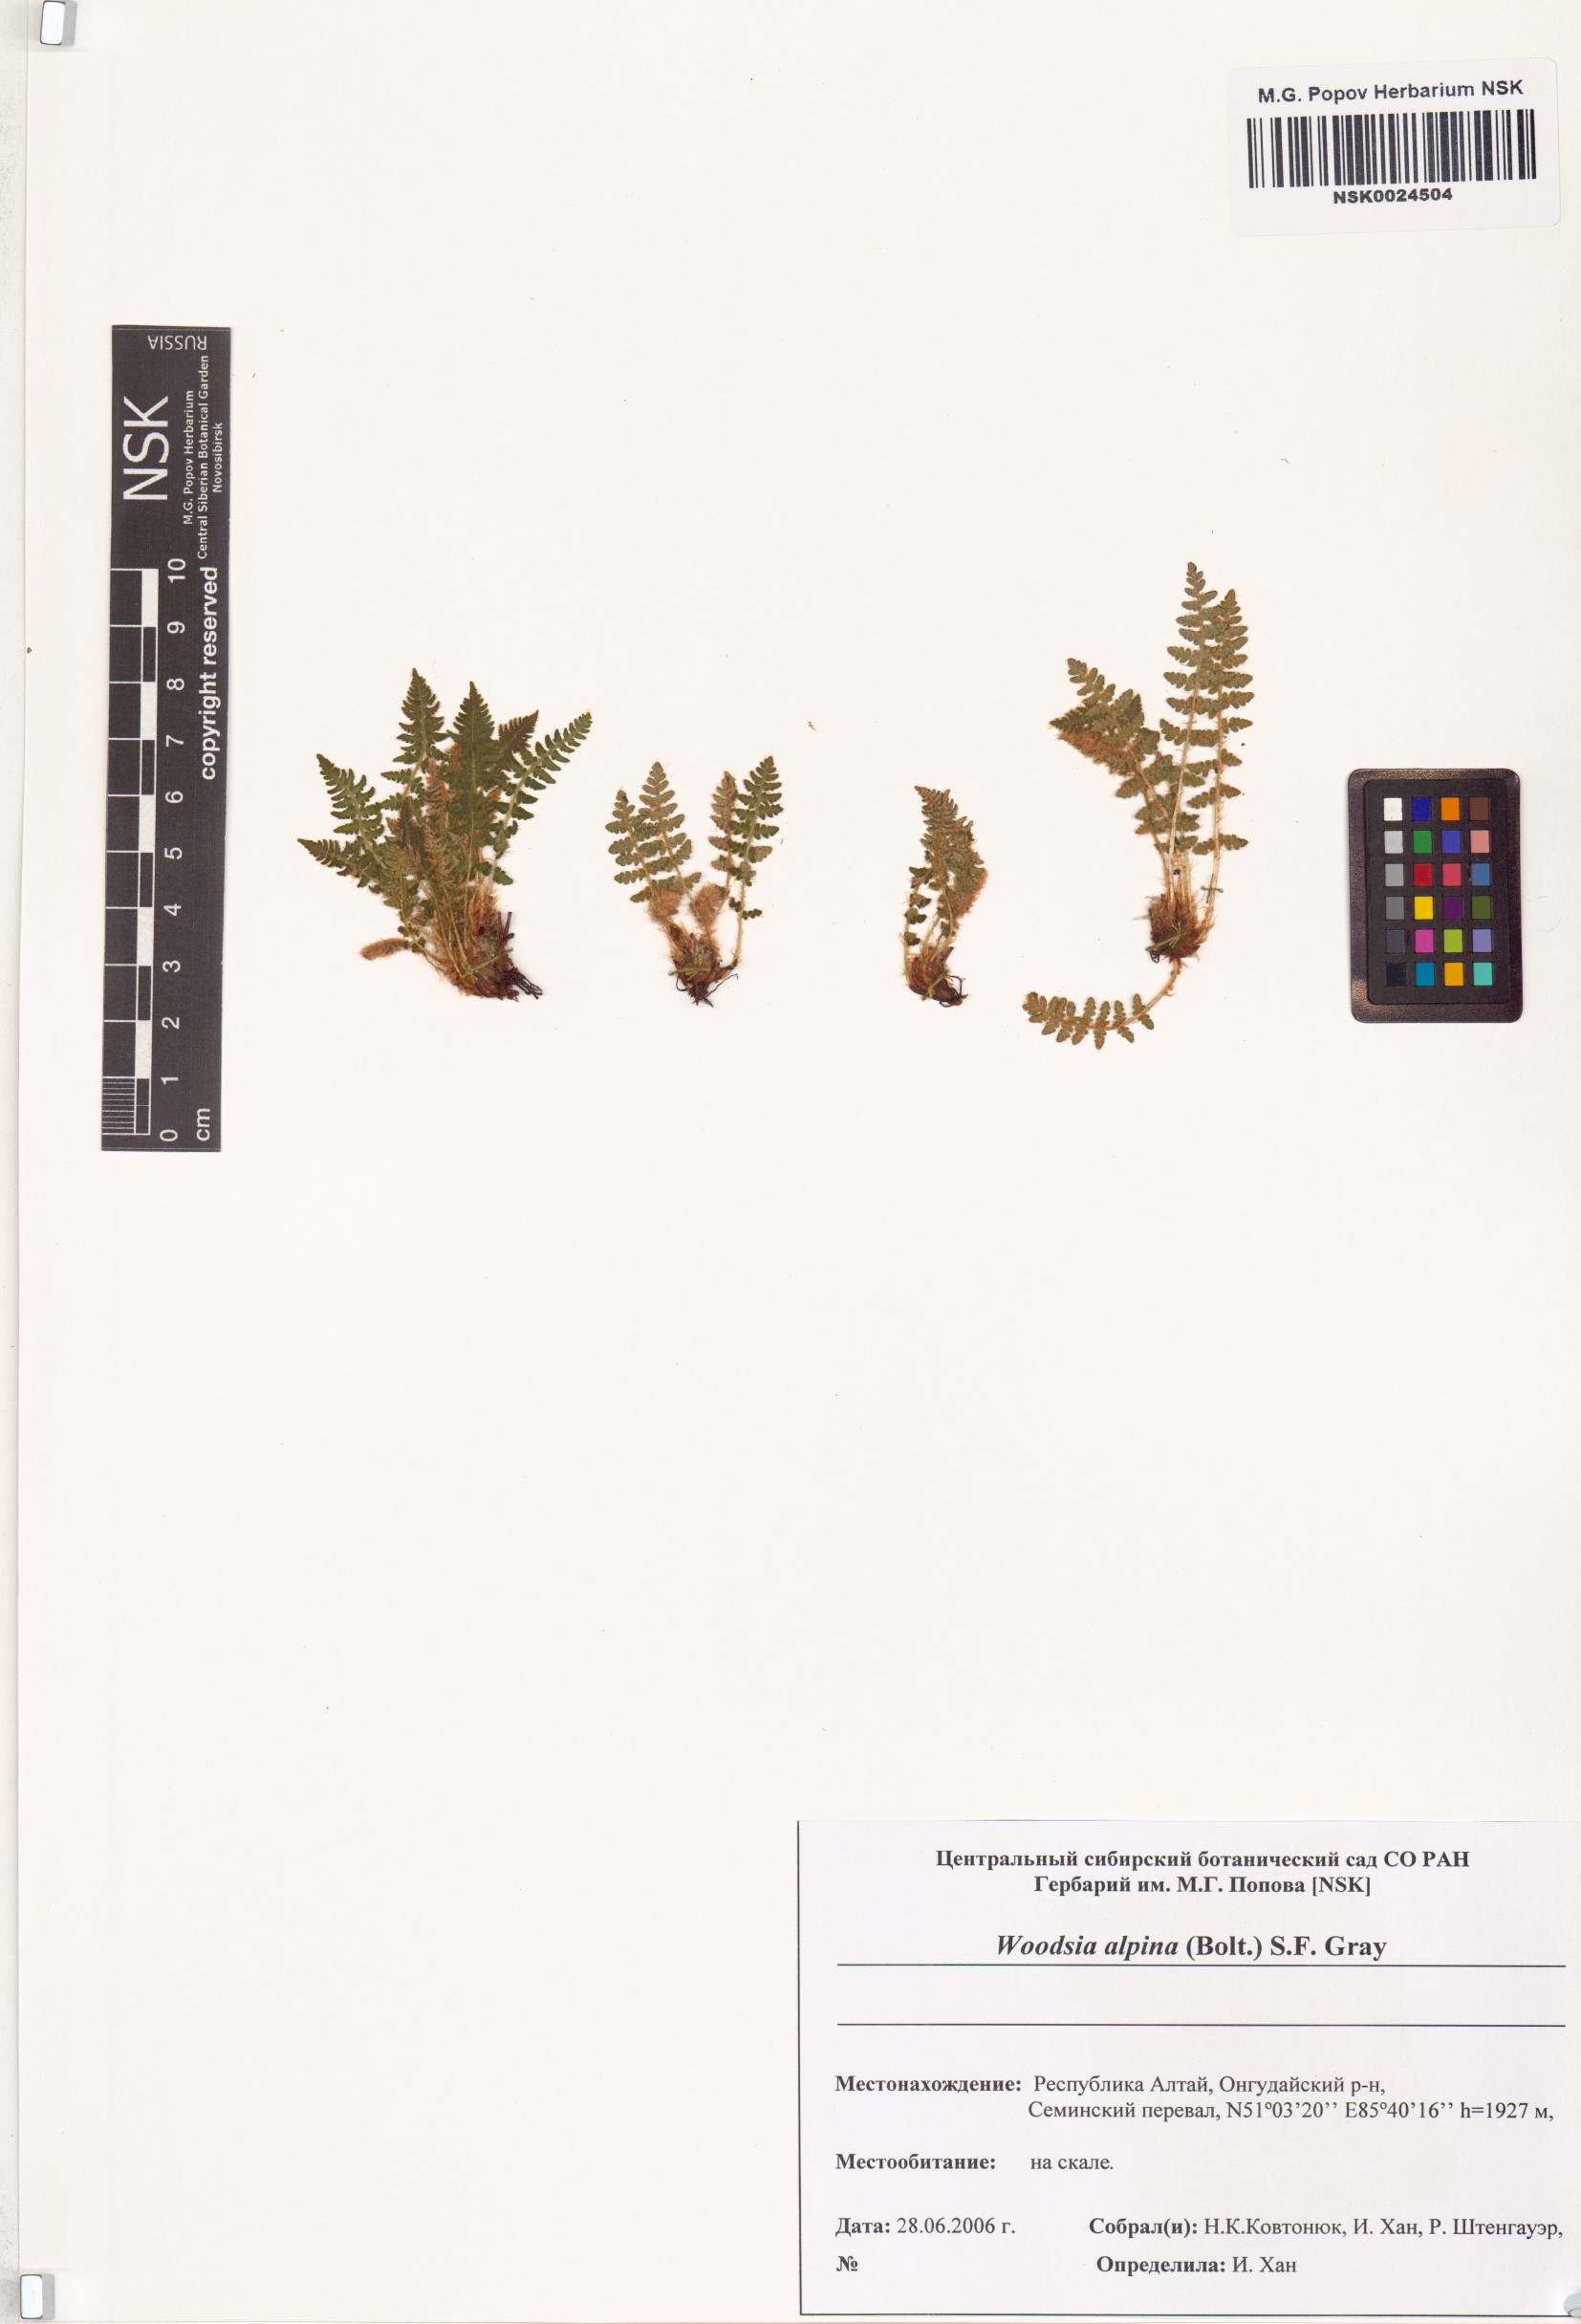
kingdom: Plantae
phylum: Tracheophyta
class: Polypodiopsida
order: Polypodiales
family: Woodsiaceae
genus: Woodsia
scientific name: Woodsia alpina
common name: Alpine woodsia
